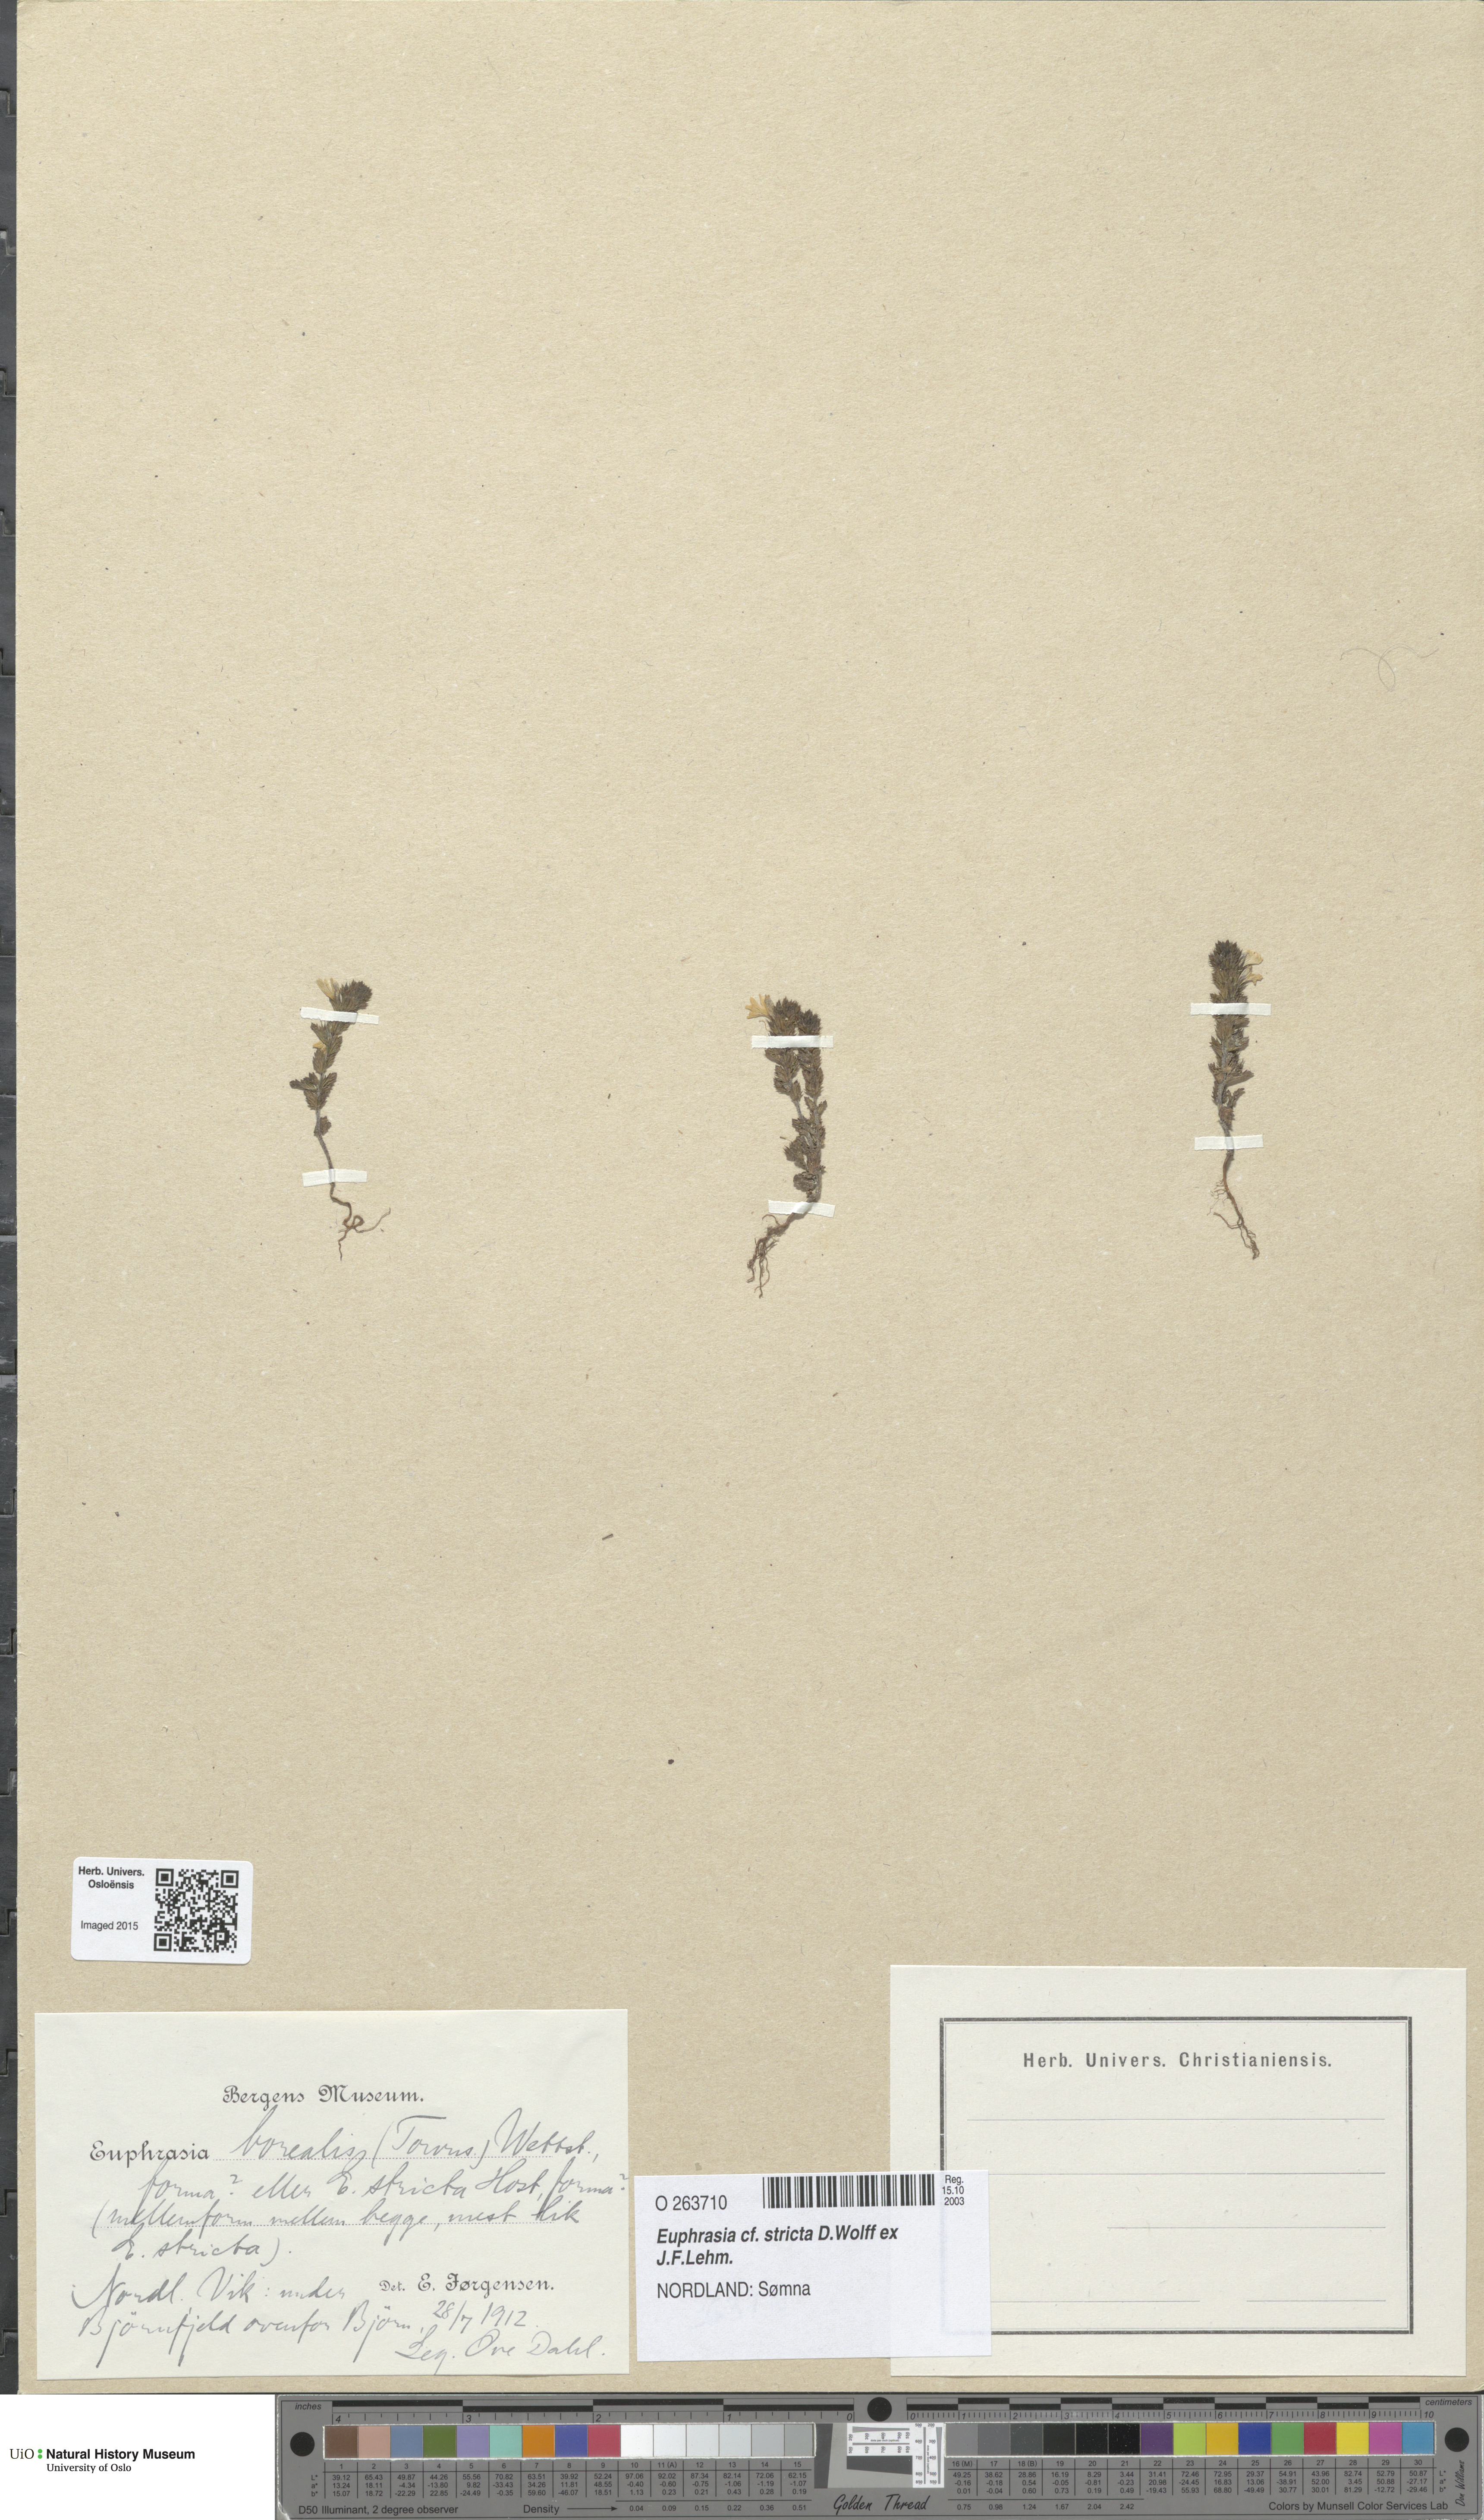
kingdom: Plantae
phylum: Tracheophyta
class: Magnoliopsida
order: Lamiales
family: Orobanchaceae
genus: Euphrasia
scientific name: Euphrasia stricta
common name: Drug eyebright
